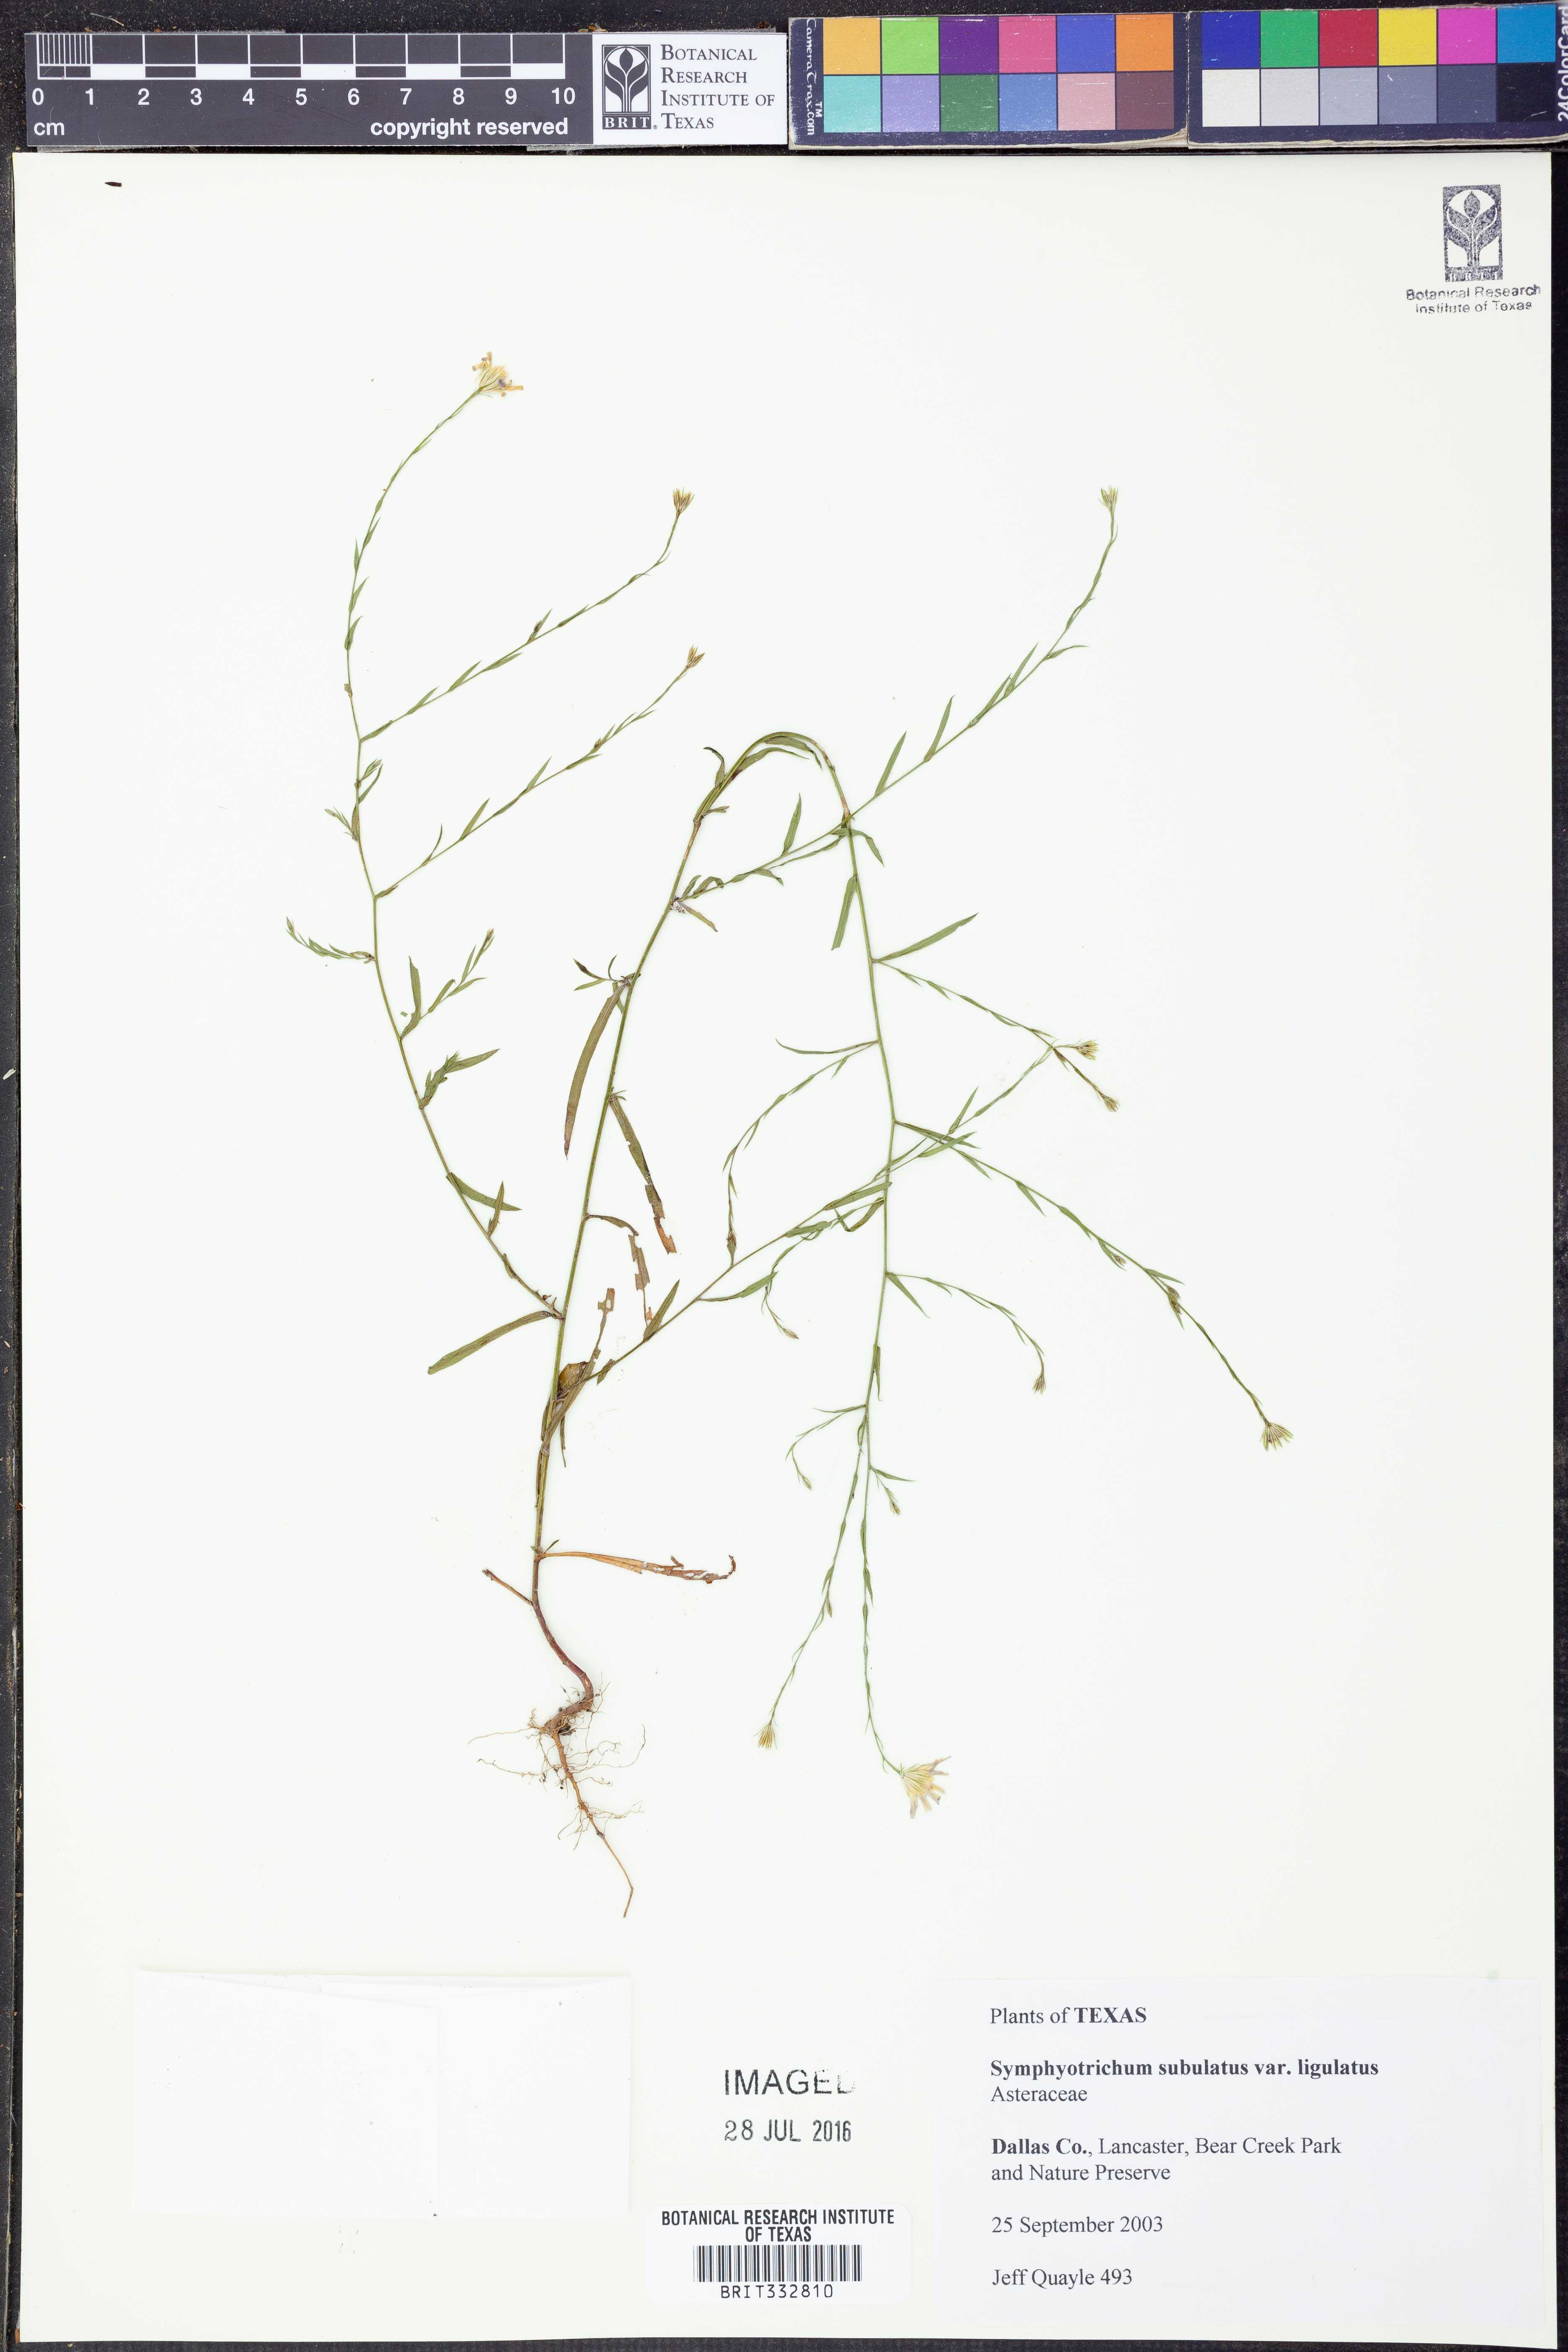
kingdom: Plantae
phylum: Tracheophyta
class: Magnoliopsida
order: Asterales
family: Asteraceae
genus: Symphyotrichum
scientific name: Symphyotrichum divaricatum
